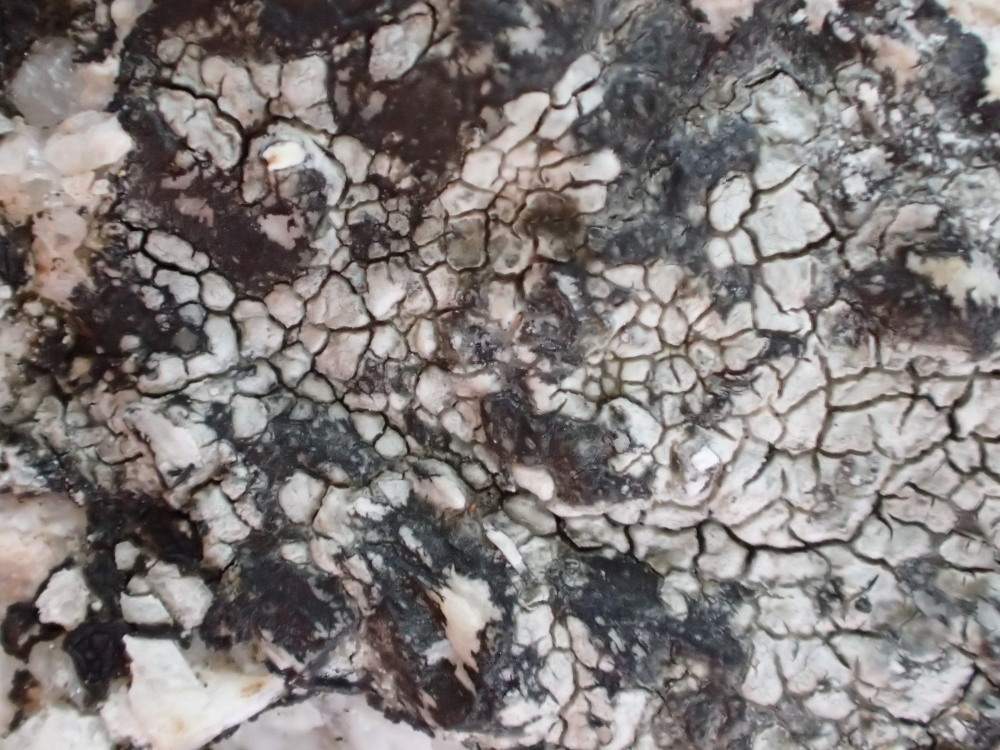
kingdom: Plantae
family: Lecanoromycetidae
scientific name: Lecanoromycetidae
